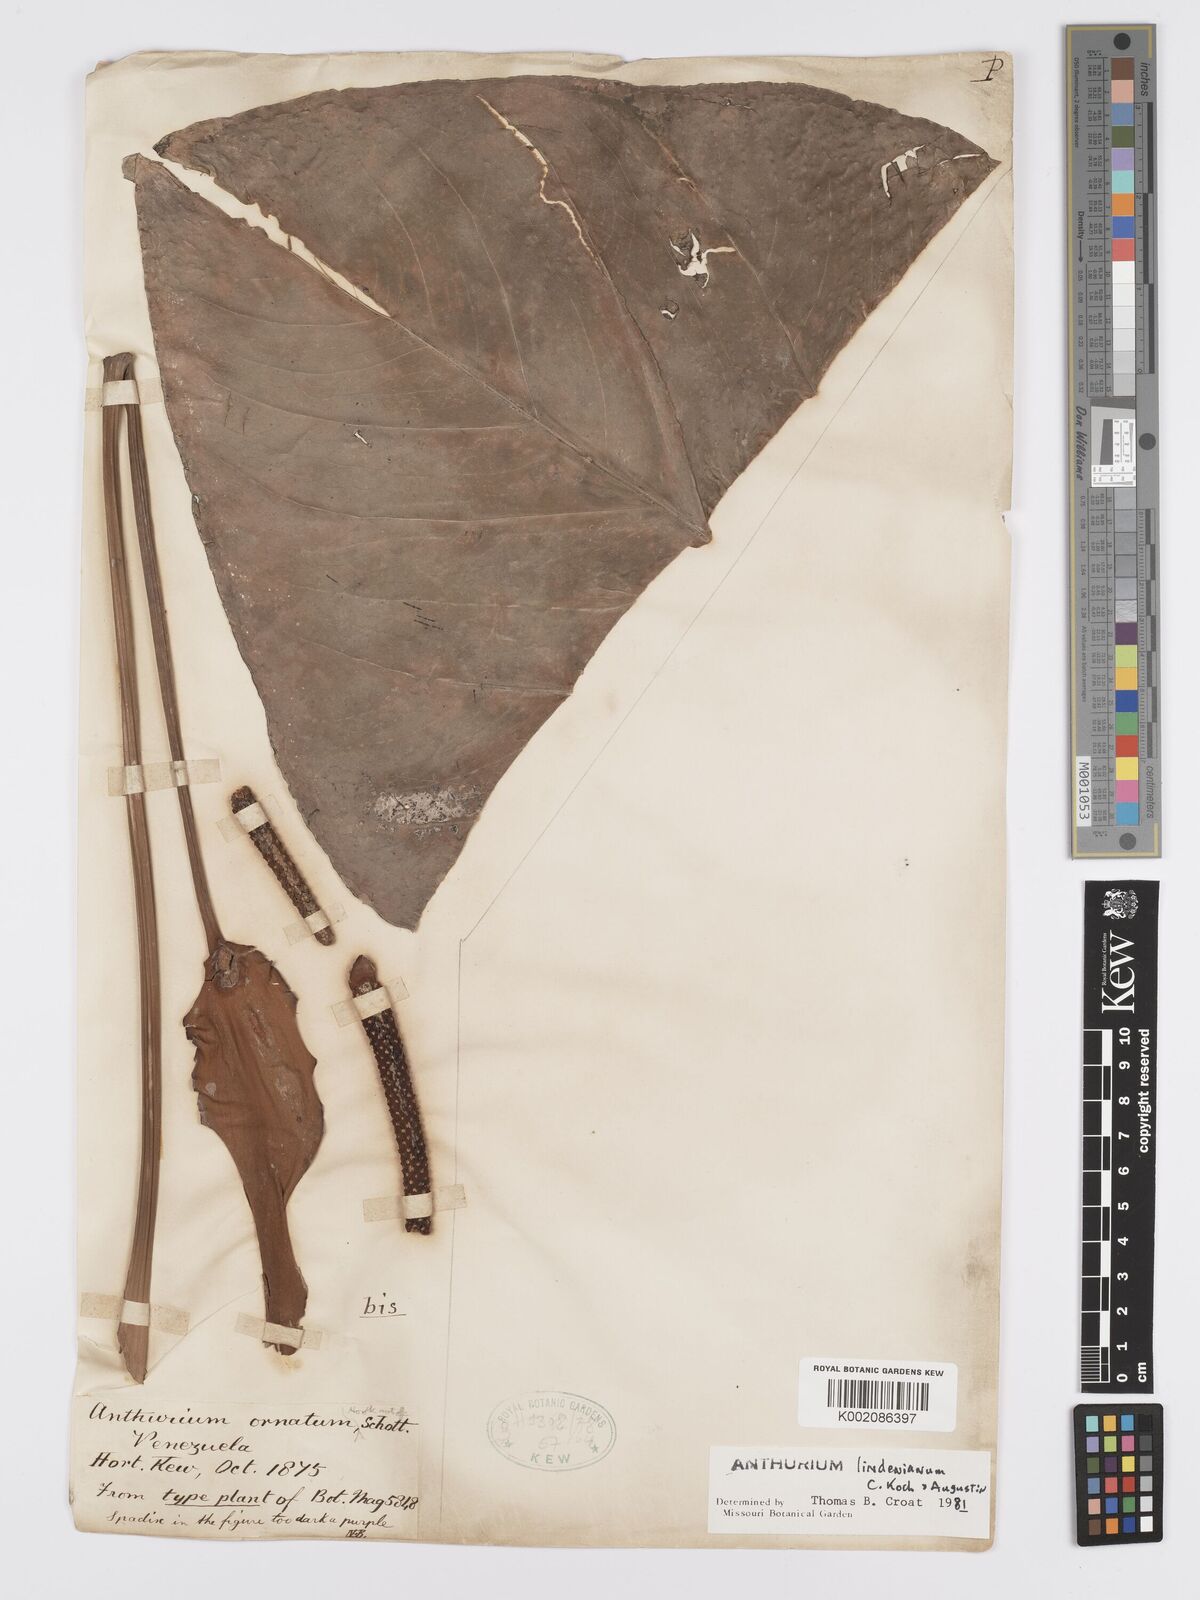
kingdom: Plantae
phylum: Tracheophyta
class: Liliopsida
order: Alismatales
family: Araceae
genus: Anthurium
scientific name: Anthurium lindenianum
